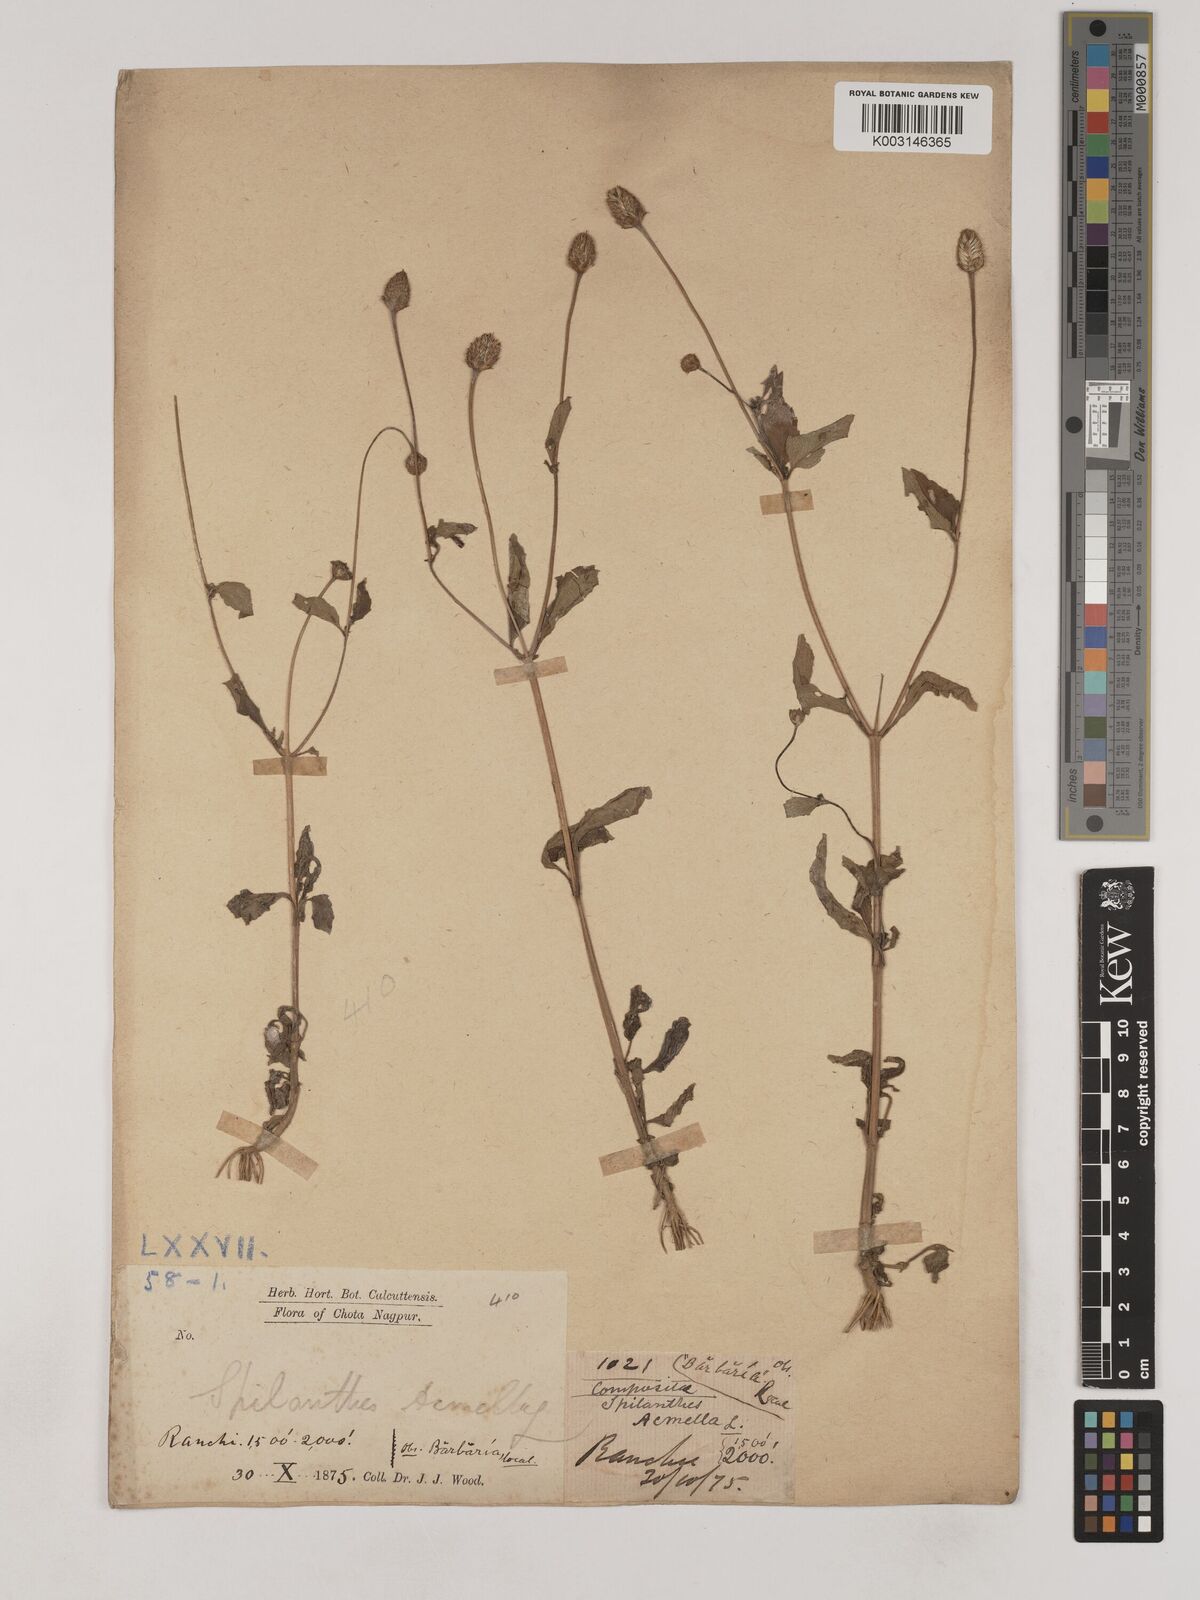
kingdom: Plantae
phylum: Tracheophyta
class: Magnoliopsida
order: Asterales
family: Asteraceae
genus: Acmella
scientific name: Acmella paniculata
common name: Panicled spot flower
